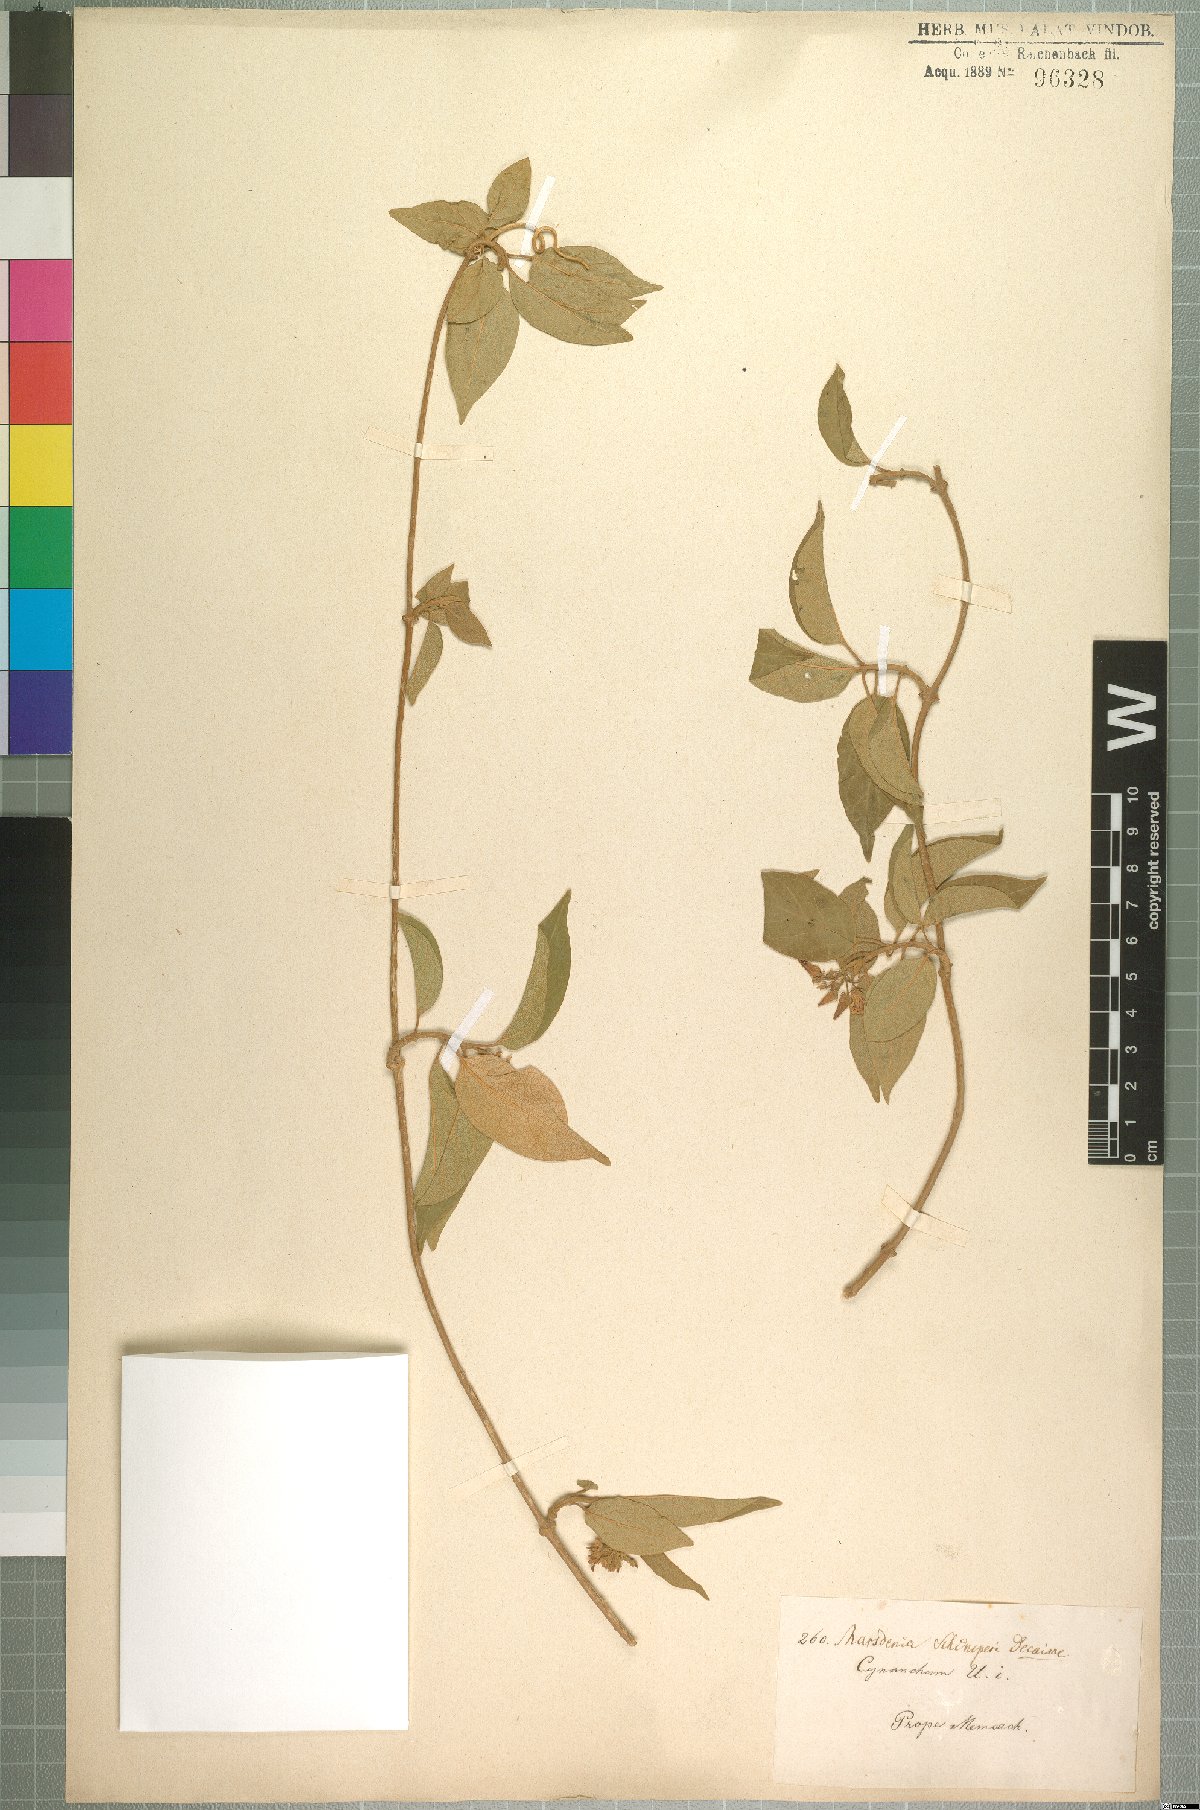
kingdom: Plantae
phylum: Tracheophyta
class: Magnoliopsida
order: Gentianales
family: Apocynaceae
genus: Stephanotis
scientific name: Stephanotis schimperi
